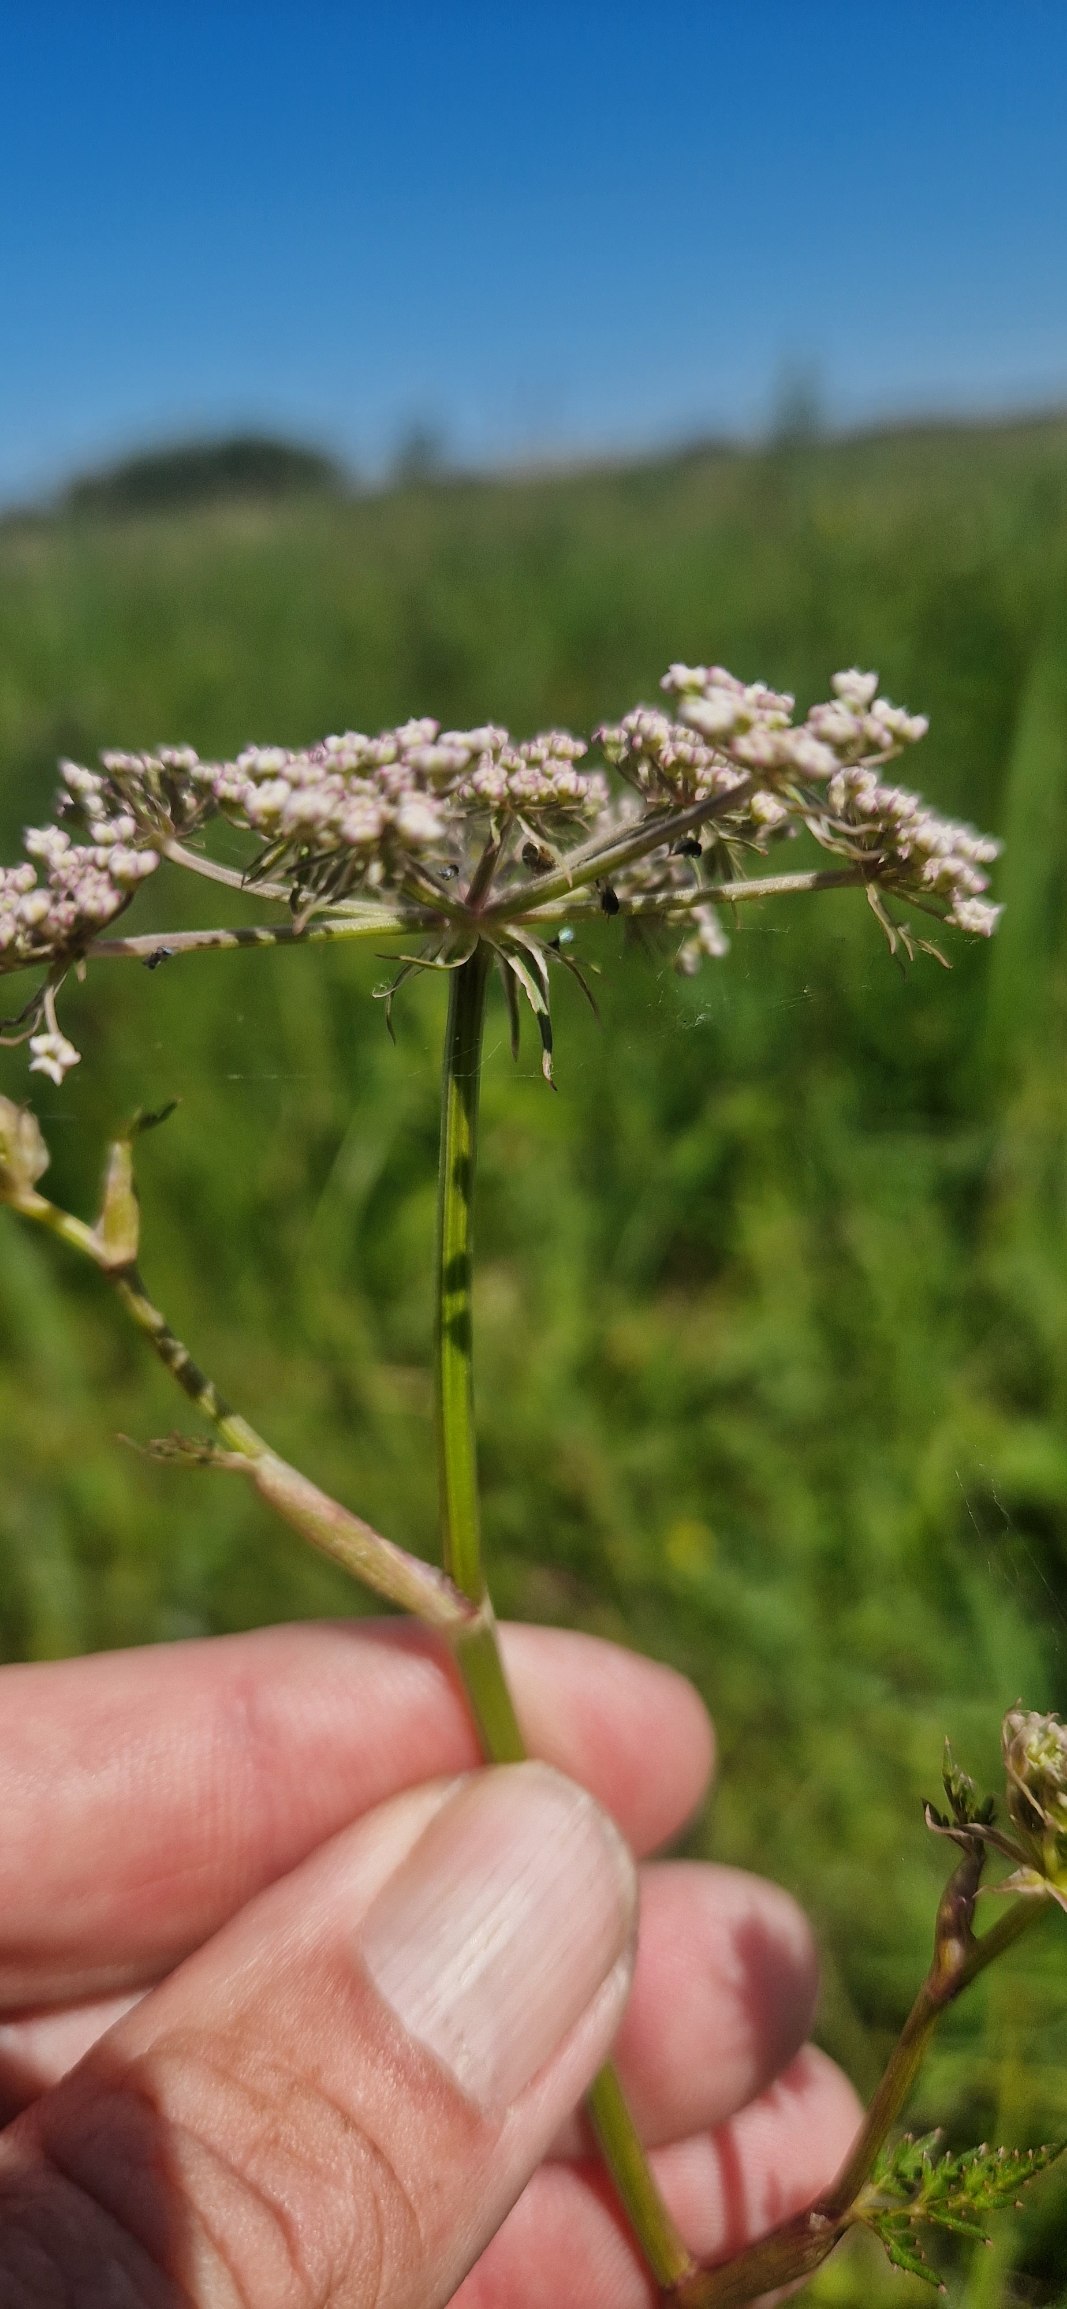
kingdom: Plantae
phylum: Tracheophyta
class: Magnoliopsida
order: Apiales
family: Apiaceae
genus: Thysselinum
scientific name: Thysselinum palustre
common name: Kær-svovlrod
